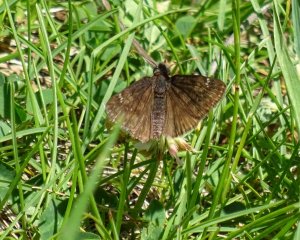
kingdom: Animalia
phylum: Arthropoda
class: Insecta
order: Lepidoptera
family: Hesperiidae
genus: Gesta
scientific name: Gesta
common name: Juvenal's Duskywing
